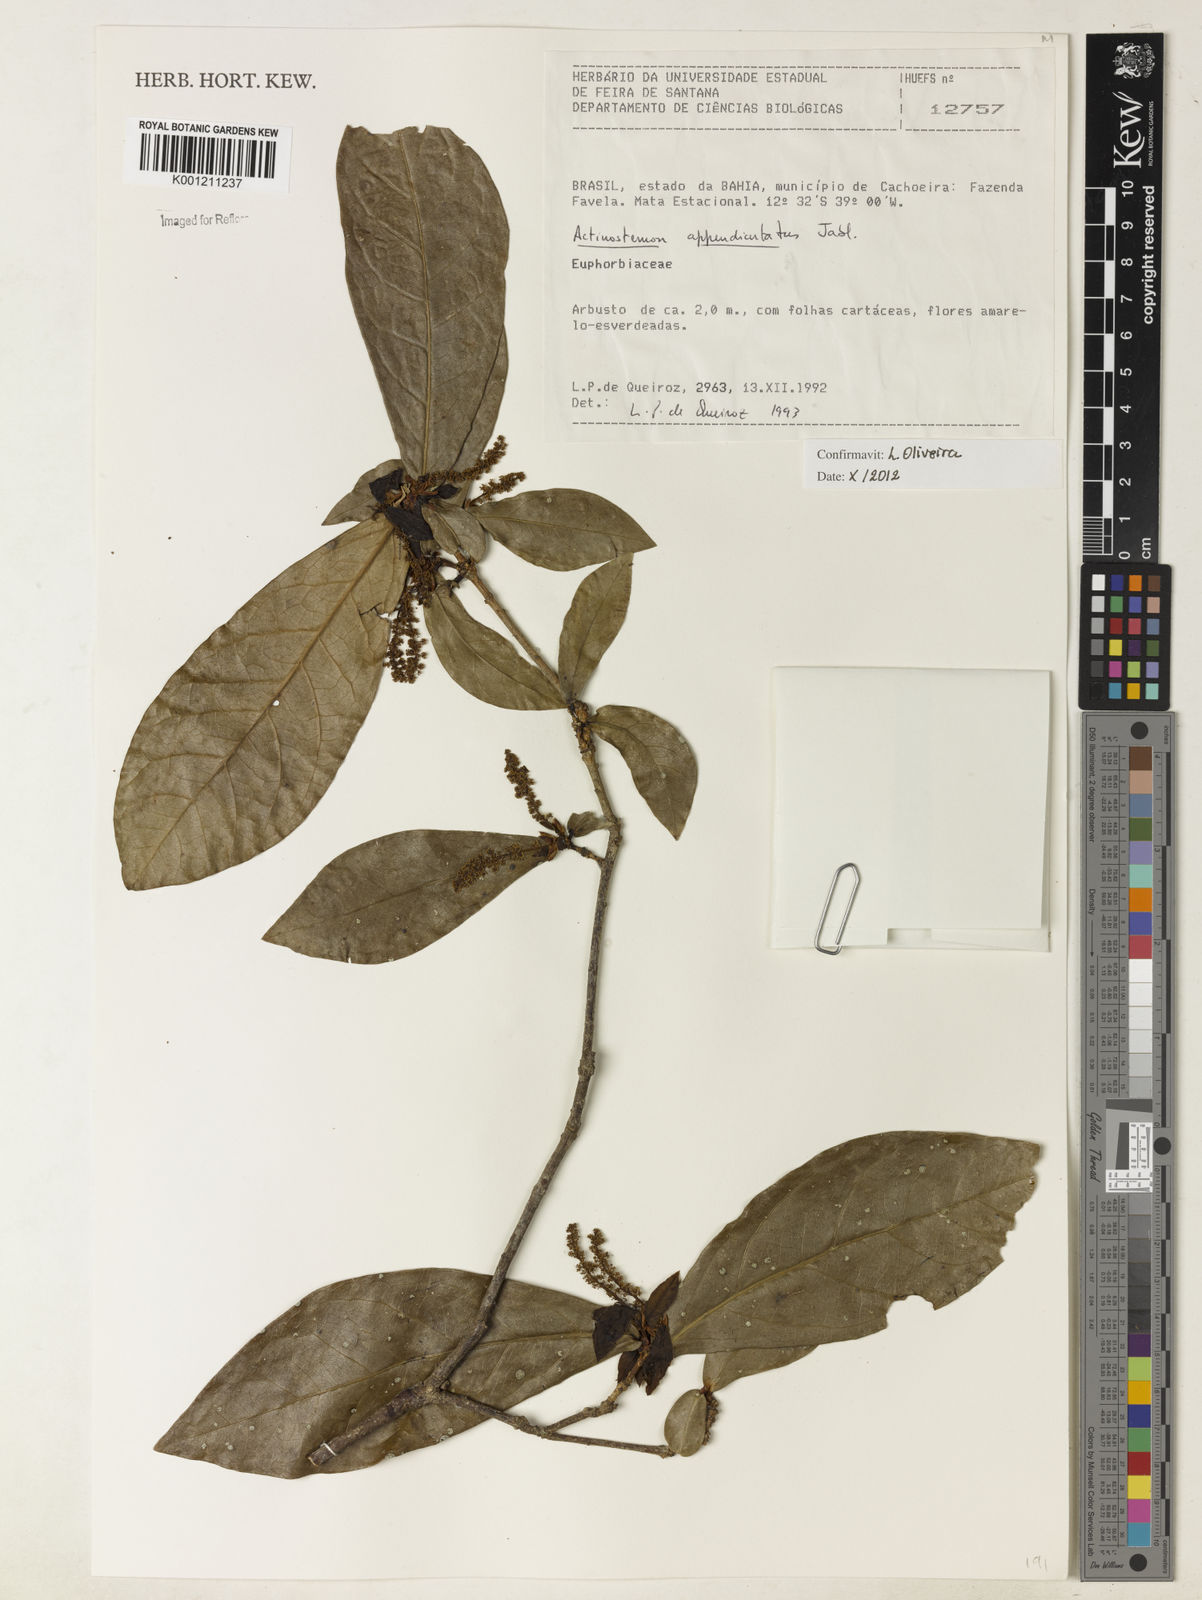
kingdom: Plantae
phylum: Tracheophyta
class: Magnoliopsida
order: Malpighiales
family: Euphorbiaceae
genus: Actinostemon
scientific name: Actinostemon lasiocarpus
